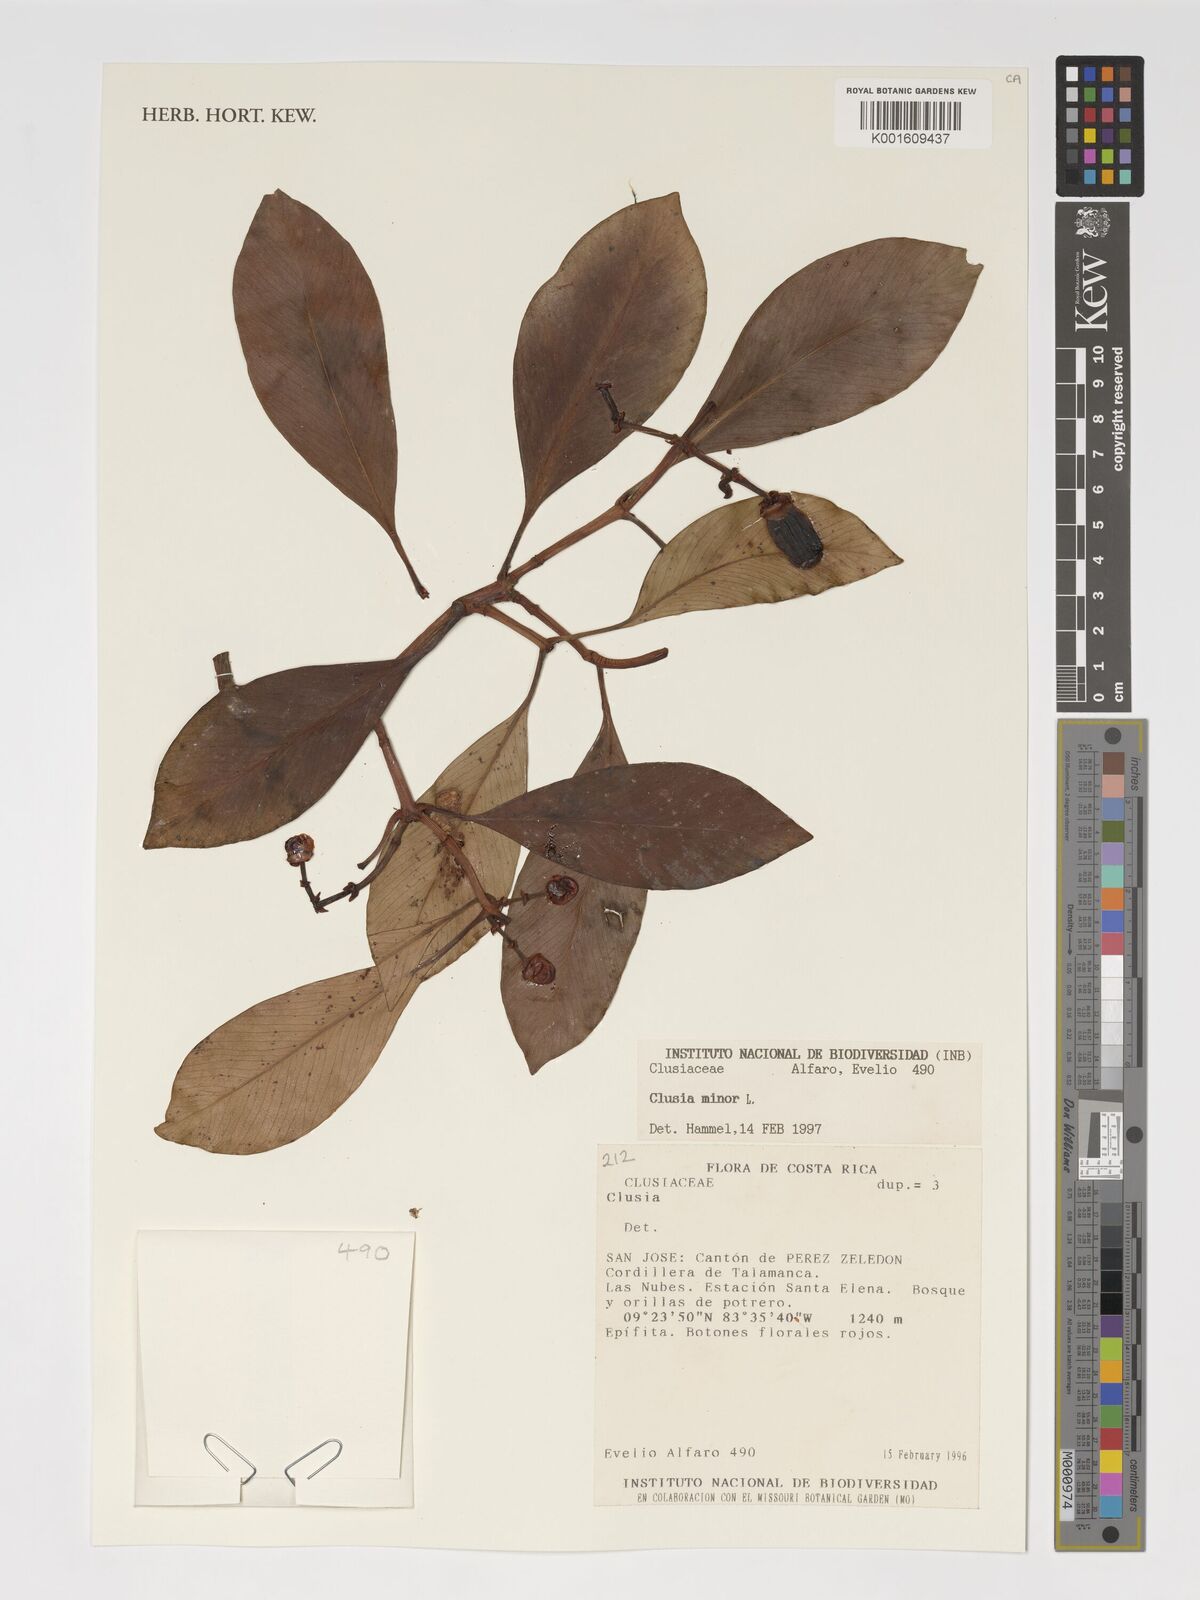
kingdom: Plantae
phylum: Tracheophyta
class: Magnoliopsida
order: Malpighiales
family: Clusiaceae
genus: Clusia
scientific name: Clusia minor
